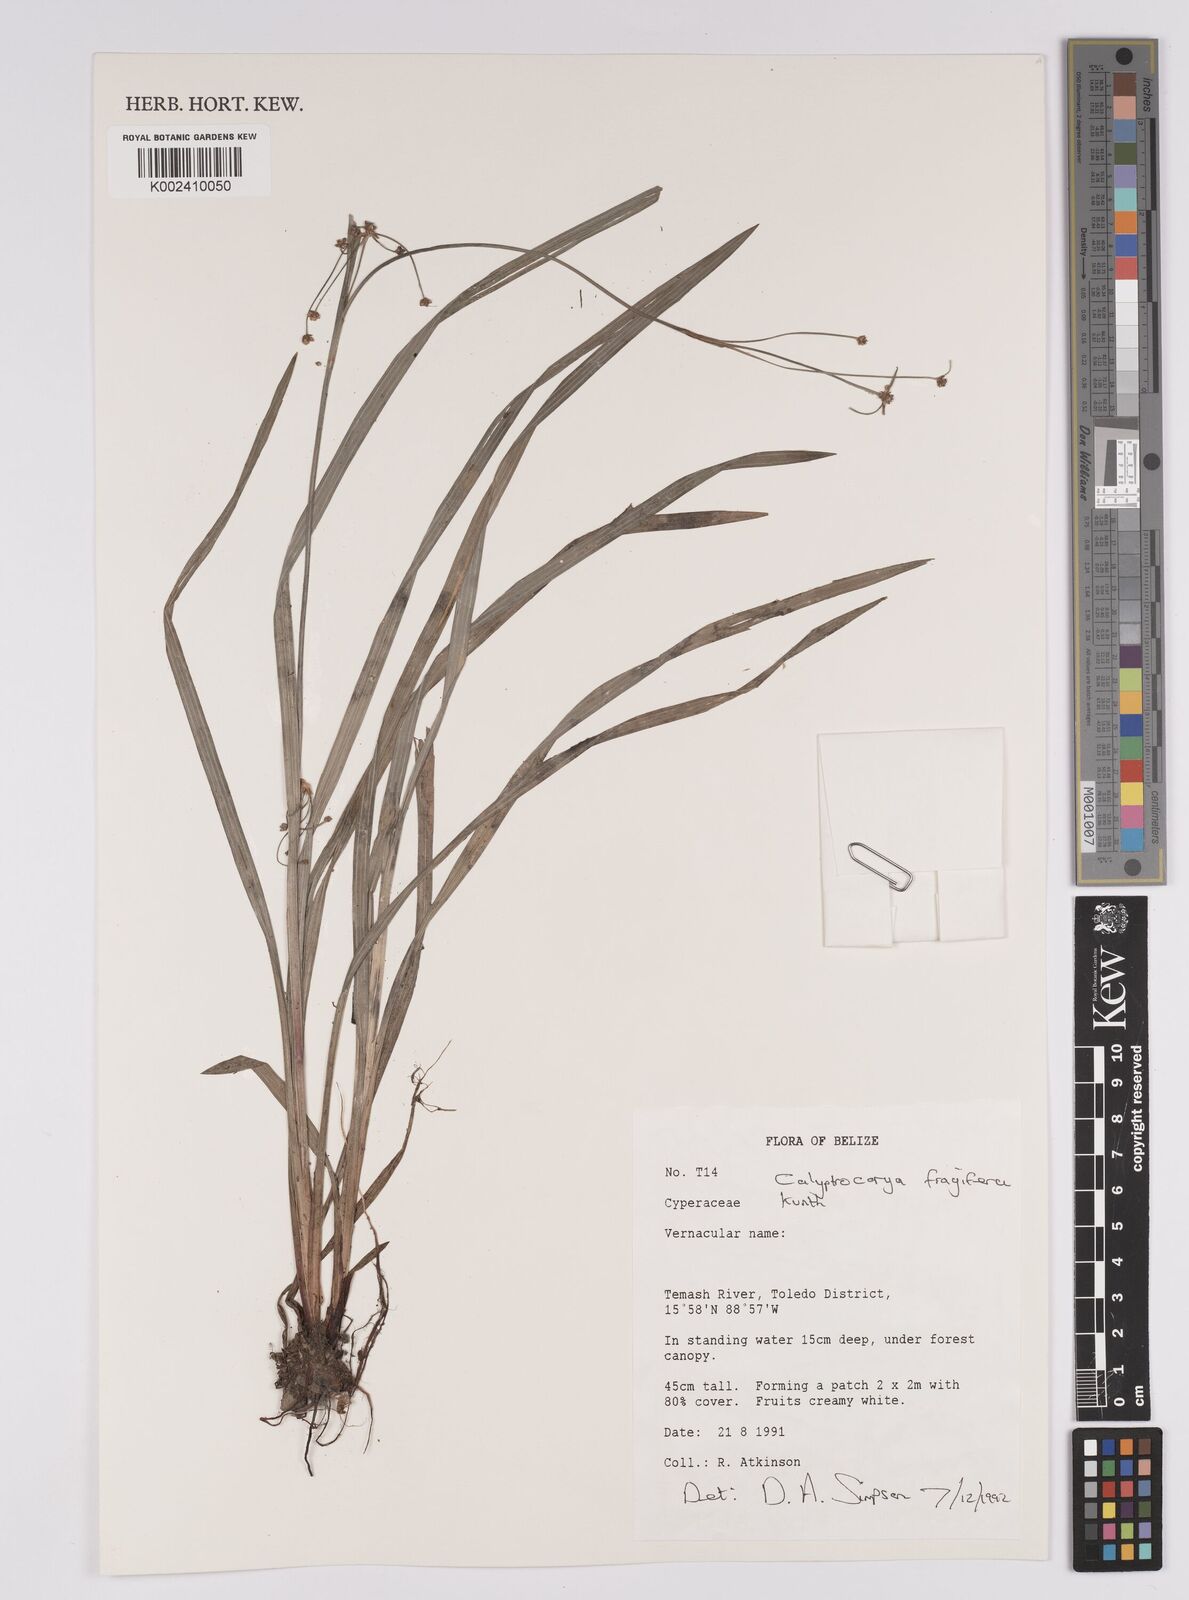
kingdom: Plantae
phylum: Tracheophyta
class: Liliopsida
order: Poales
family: Cyperaceae
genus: Calyptrocarya
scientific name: Calyptrocarya
